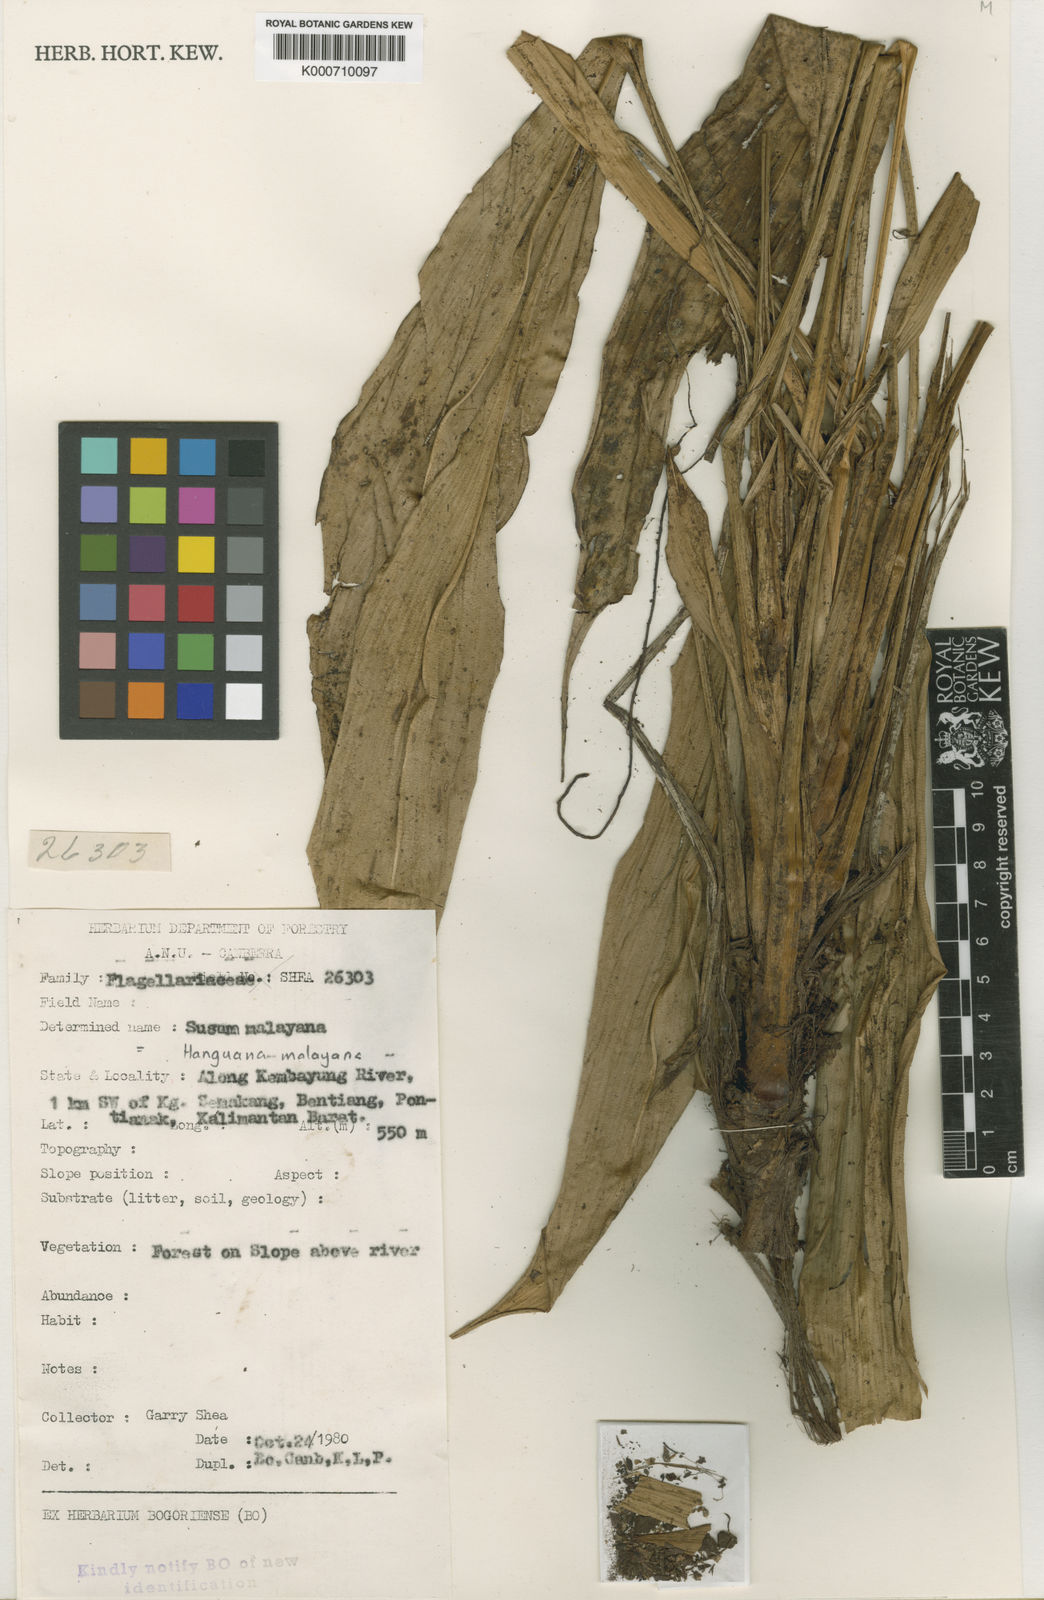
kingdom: Plantae
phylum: Tracheophyta
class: Liliopsida
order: Commelinales
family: Hanguanaceae
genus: Hanguana
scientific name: Hanguana malayana
